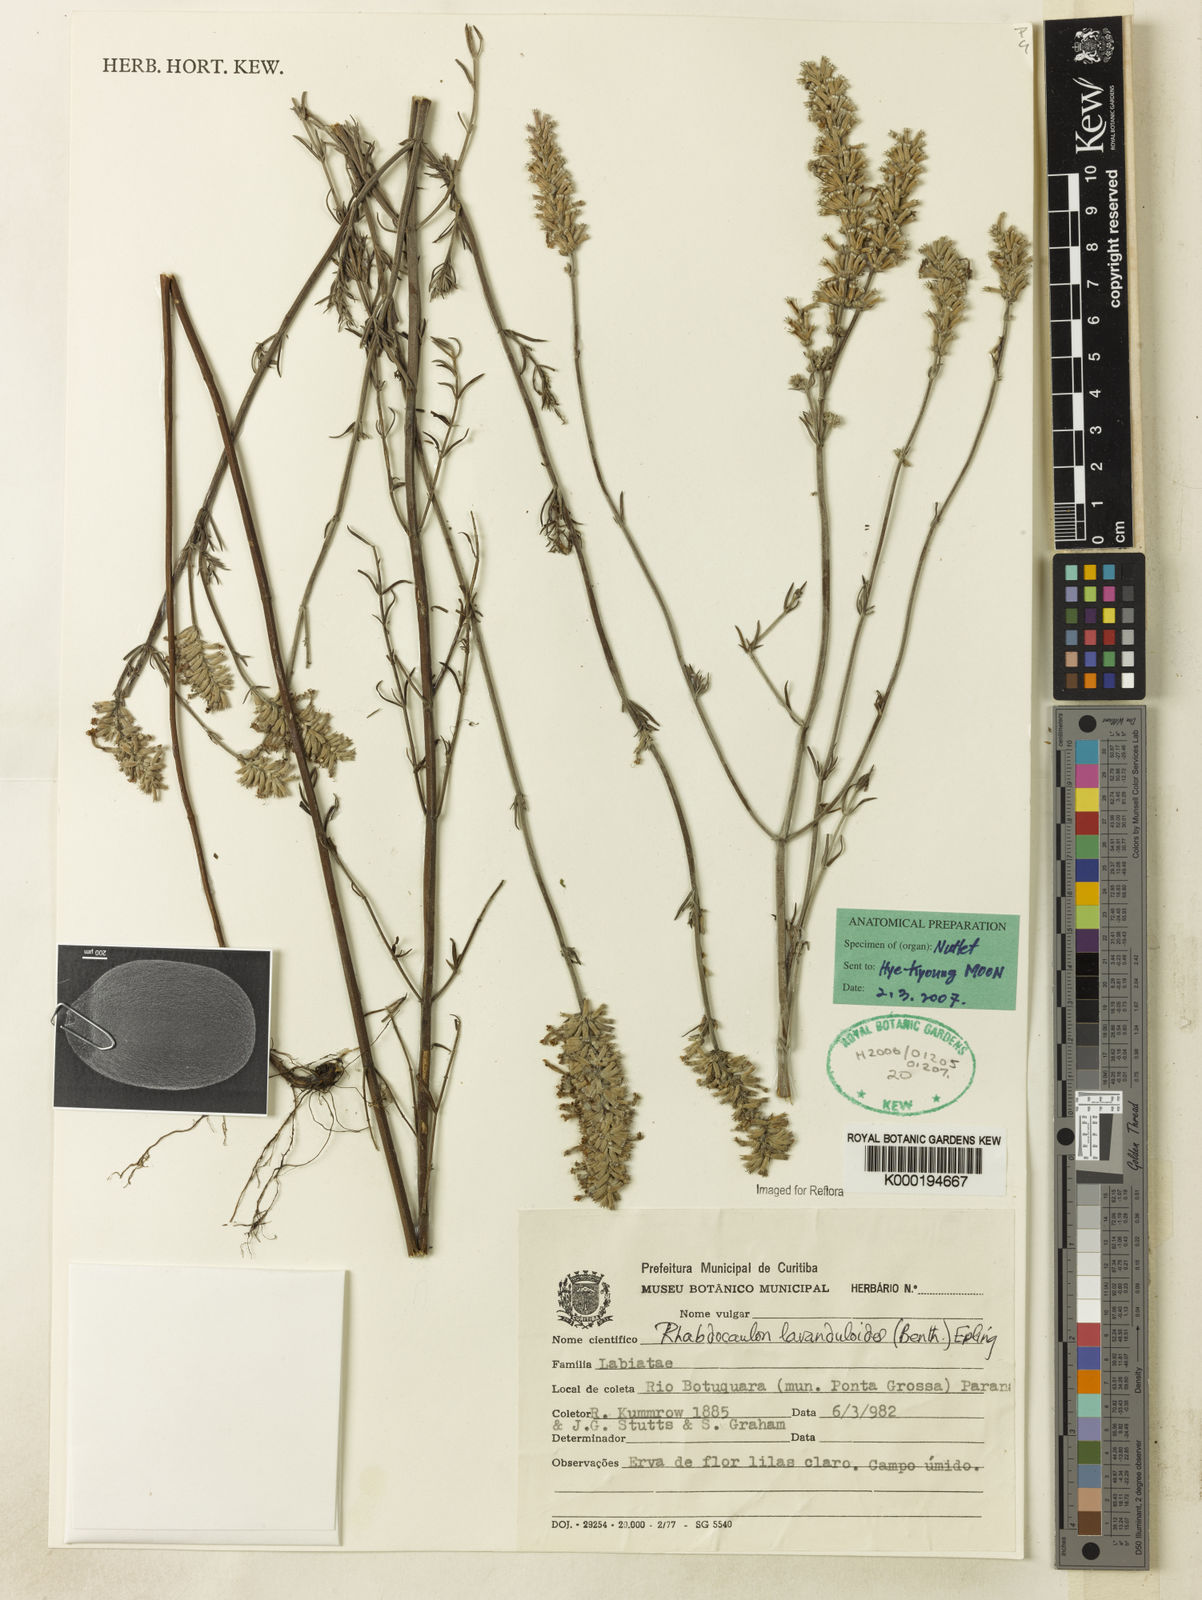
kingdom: Plantae
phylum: Tracheophyta
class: Magnoliopsida
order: Lamiales
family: Lamiaceae
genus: Rhabdocaulon
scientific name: Rhabdocaulon lavanduloides
